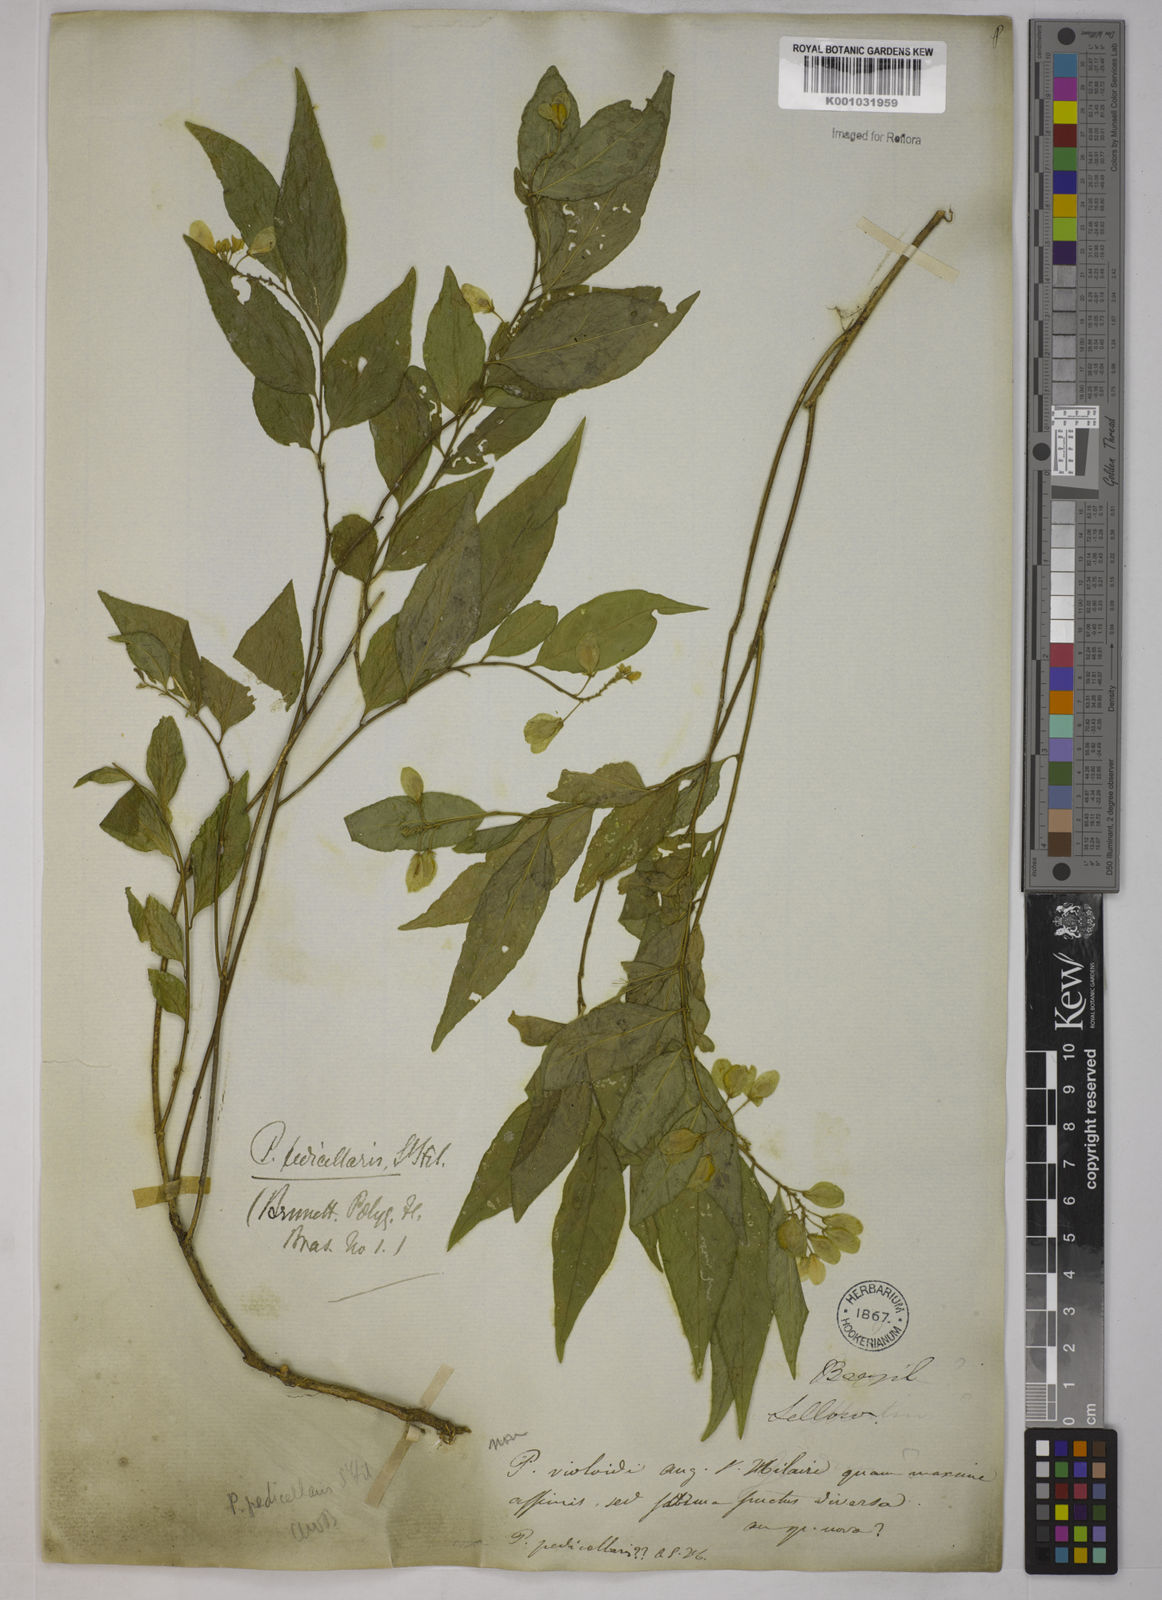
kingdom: Plantae
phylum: Tracheophyta
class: Magnoliopsida
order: Fabales
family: Polygalaceae
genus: Gymnospora
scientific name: Gymnospora blanchetii
